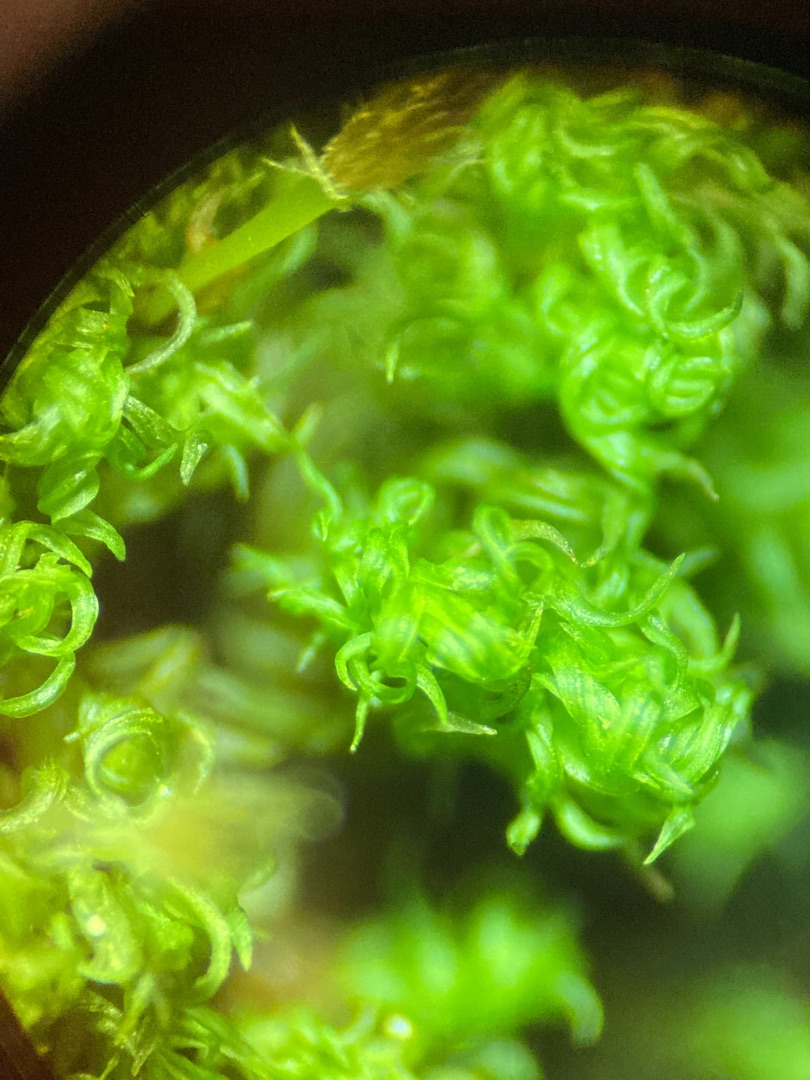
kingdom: Plantae
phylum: Bryophyta
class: Bryopsida
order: Orthotrichales
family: Orthotrichaceae
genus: Ulota
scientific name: Ulota
